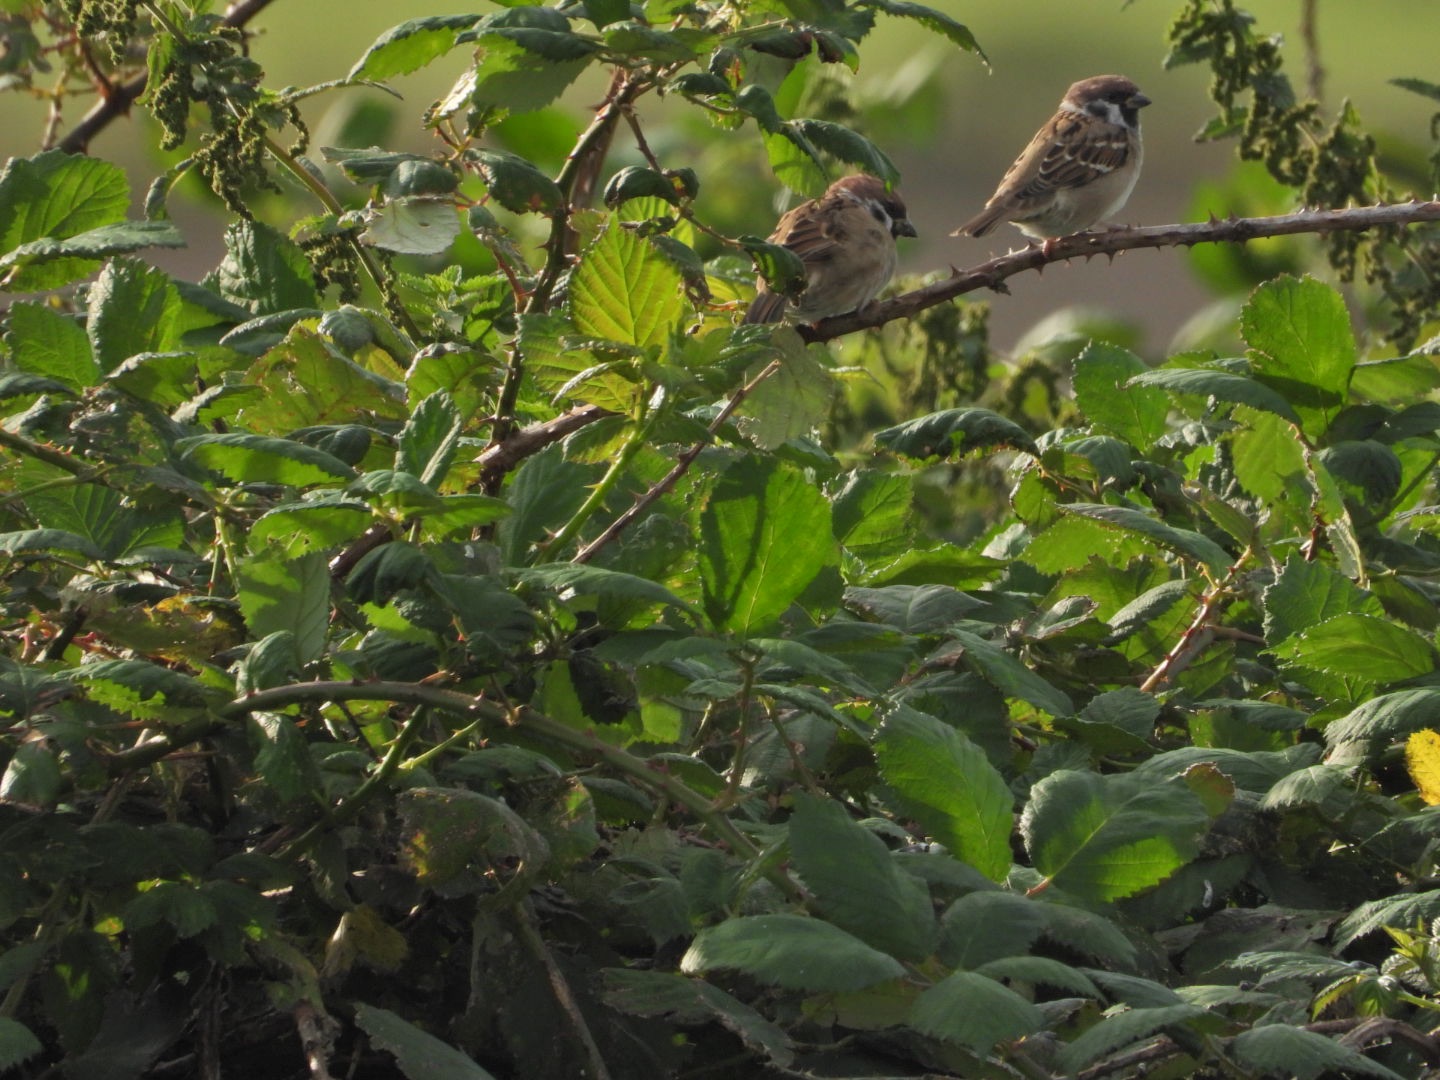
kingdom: Animalia
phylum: Chordata
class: Aves
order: Passeriformes
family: Passeridae
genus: Passer
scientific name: Passer montanus
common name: Skovspurv
